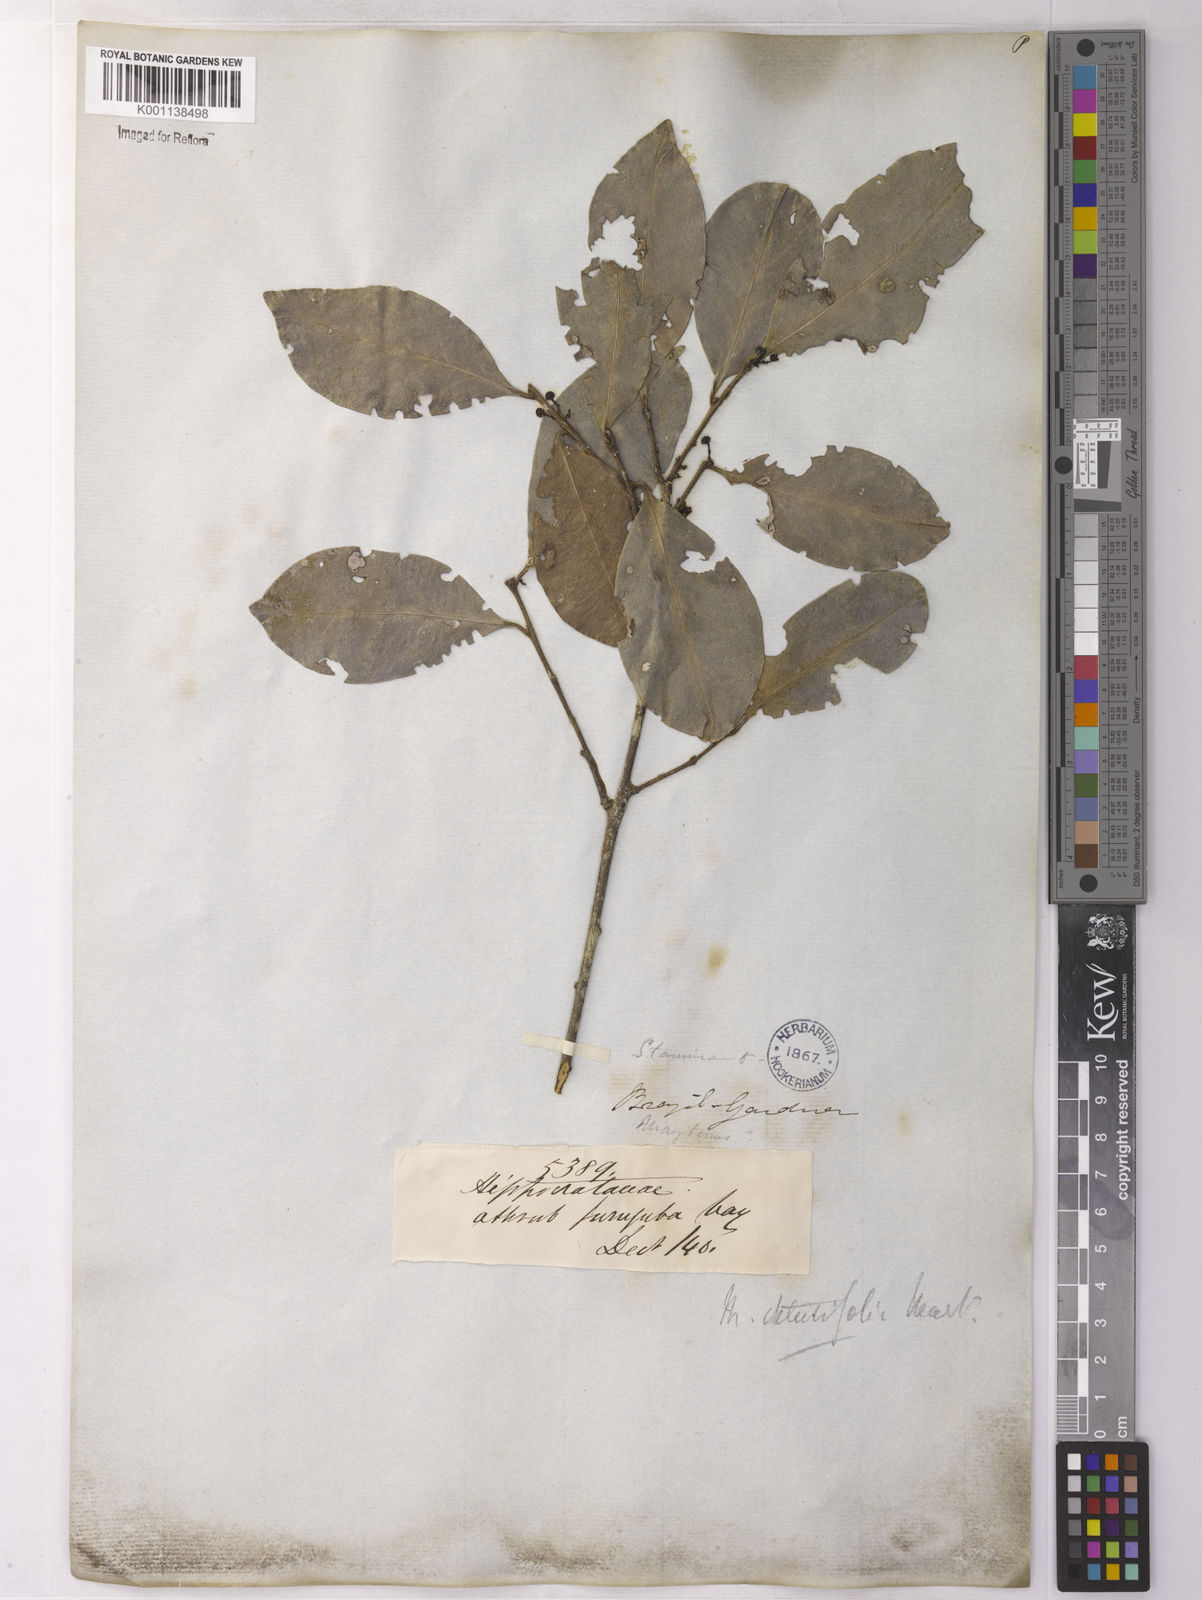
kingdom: Plantae
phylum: Tracheophyta
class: Magnoliopsida
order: Celastrales
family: Celastraceae
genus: Monteverdia
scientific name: Monteverdia obtusifolia
